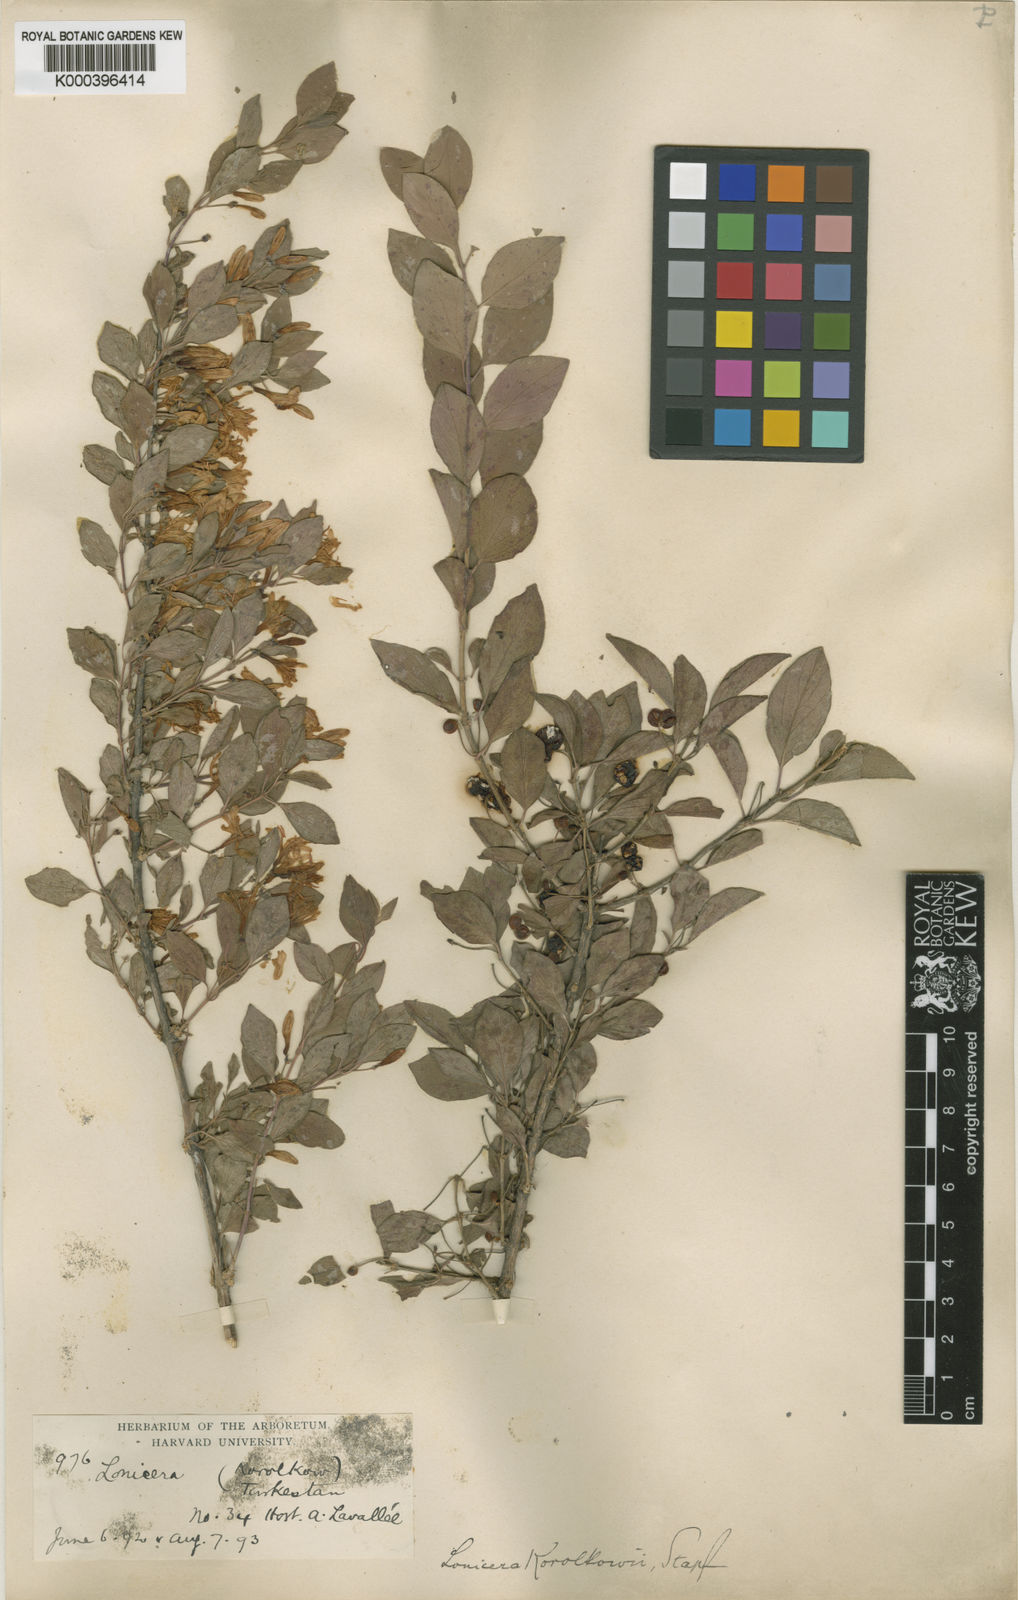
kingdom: Plantae
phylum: Tracheophyta
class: Magnoliopsida
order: Dipsacales
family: Caprifoliaceae
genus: Lonicera
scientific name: Lonicera korolkowii
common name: Blueleaf honeysuckle
